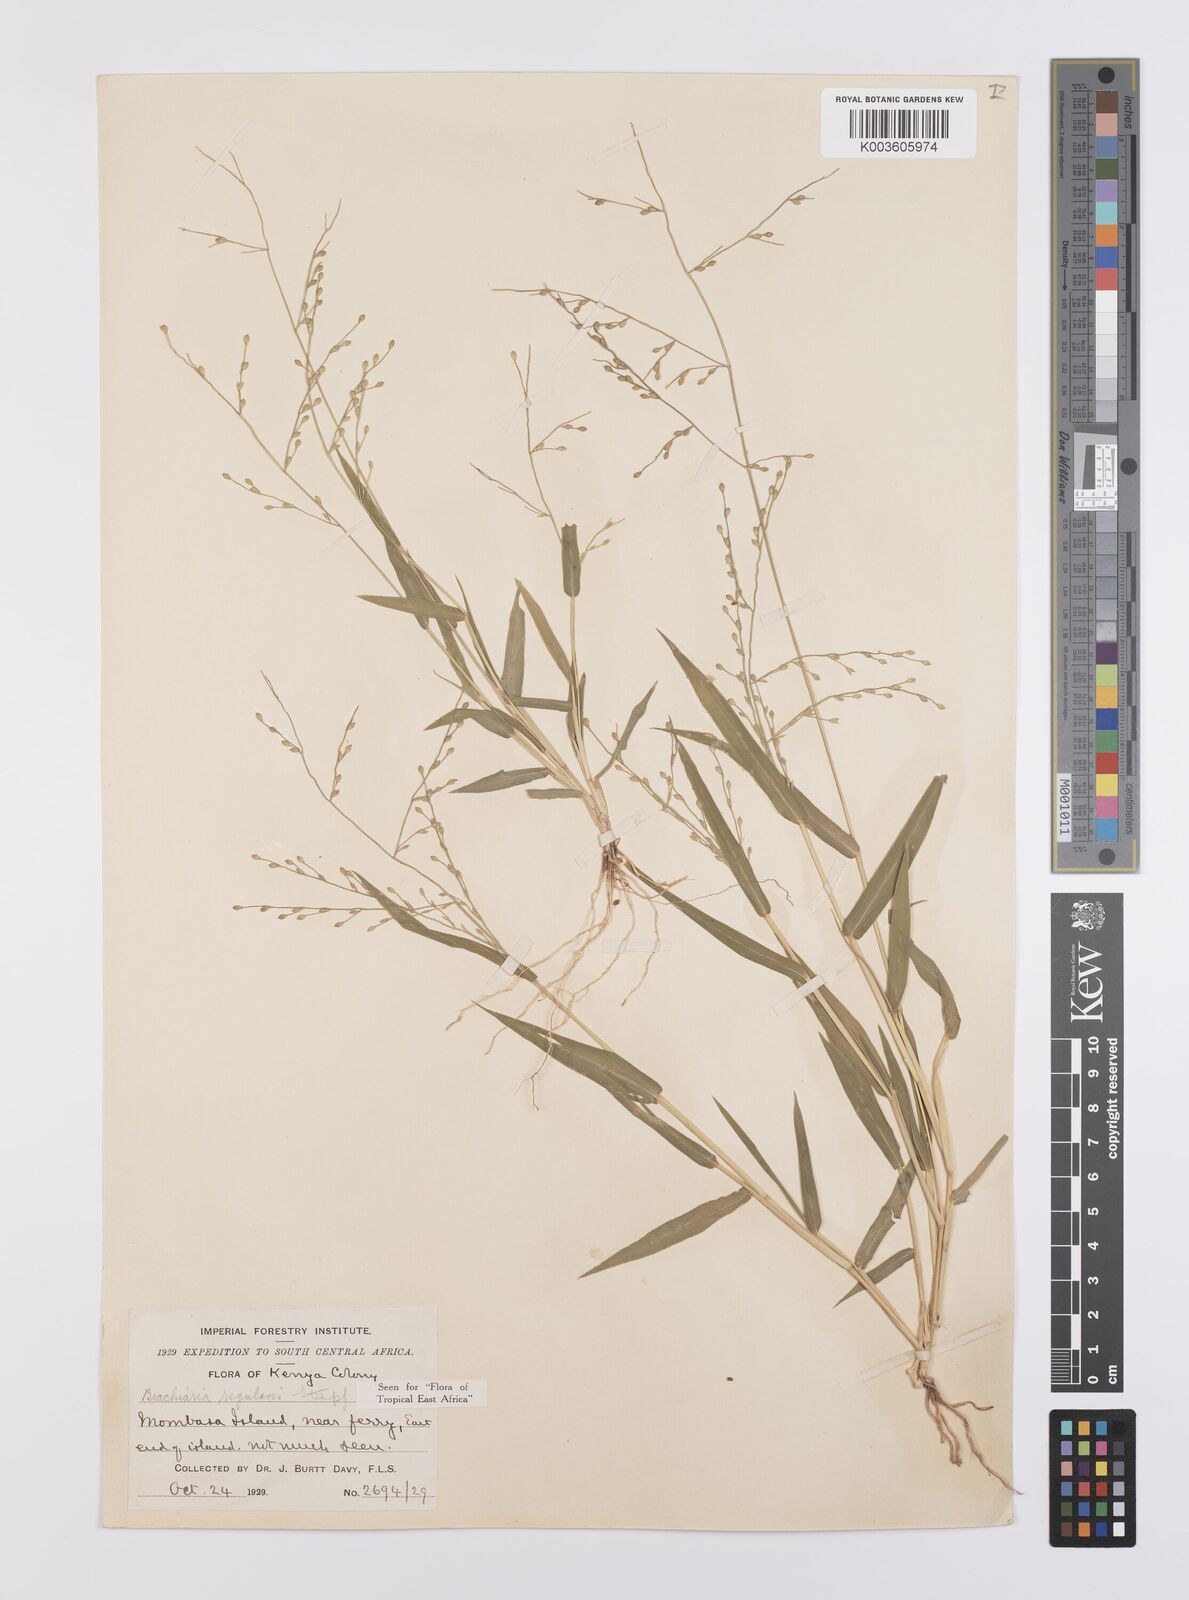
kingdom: Plantae
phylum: Tracheophyta
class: Liliopsida
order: Poales
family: Poaceae
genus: Urochloa
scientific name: Urochloa deflexa
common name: Guinea millet
